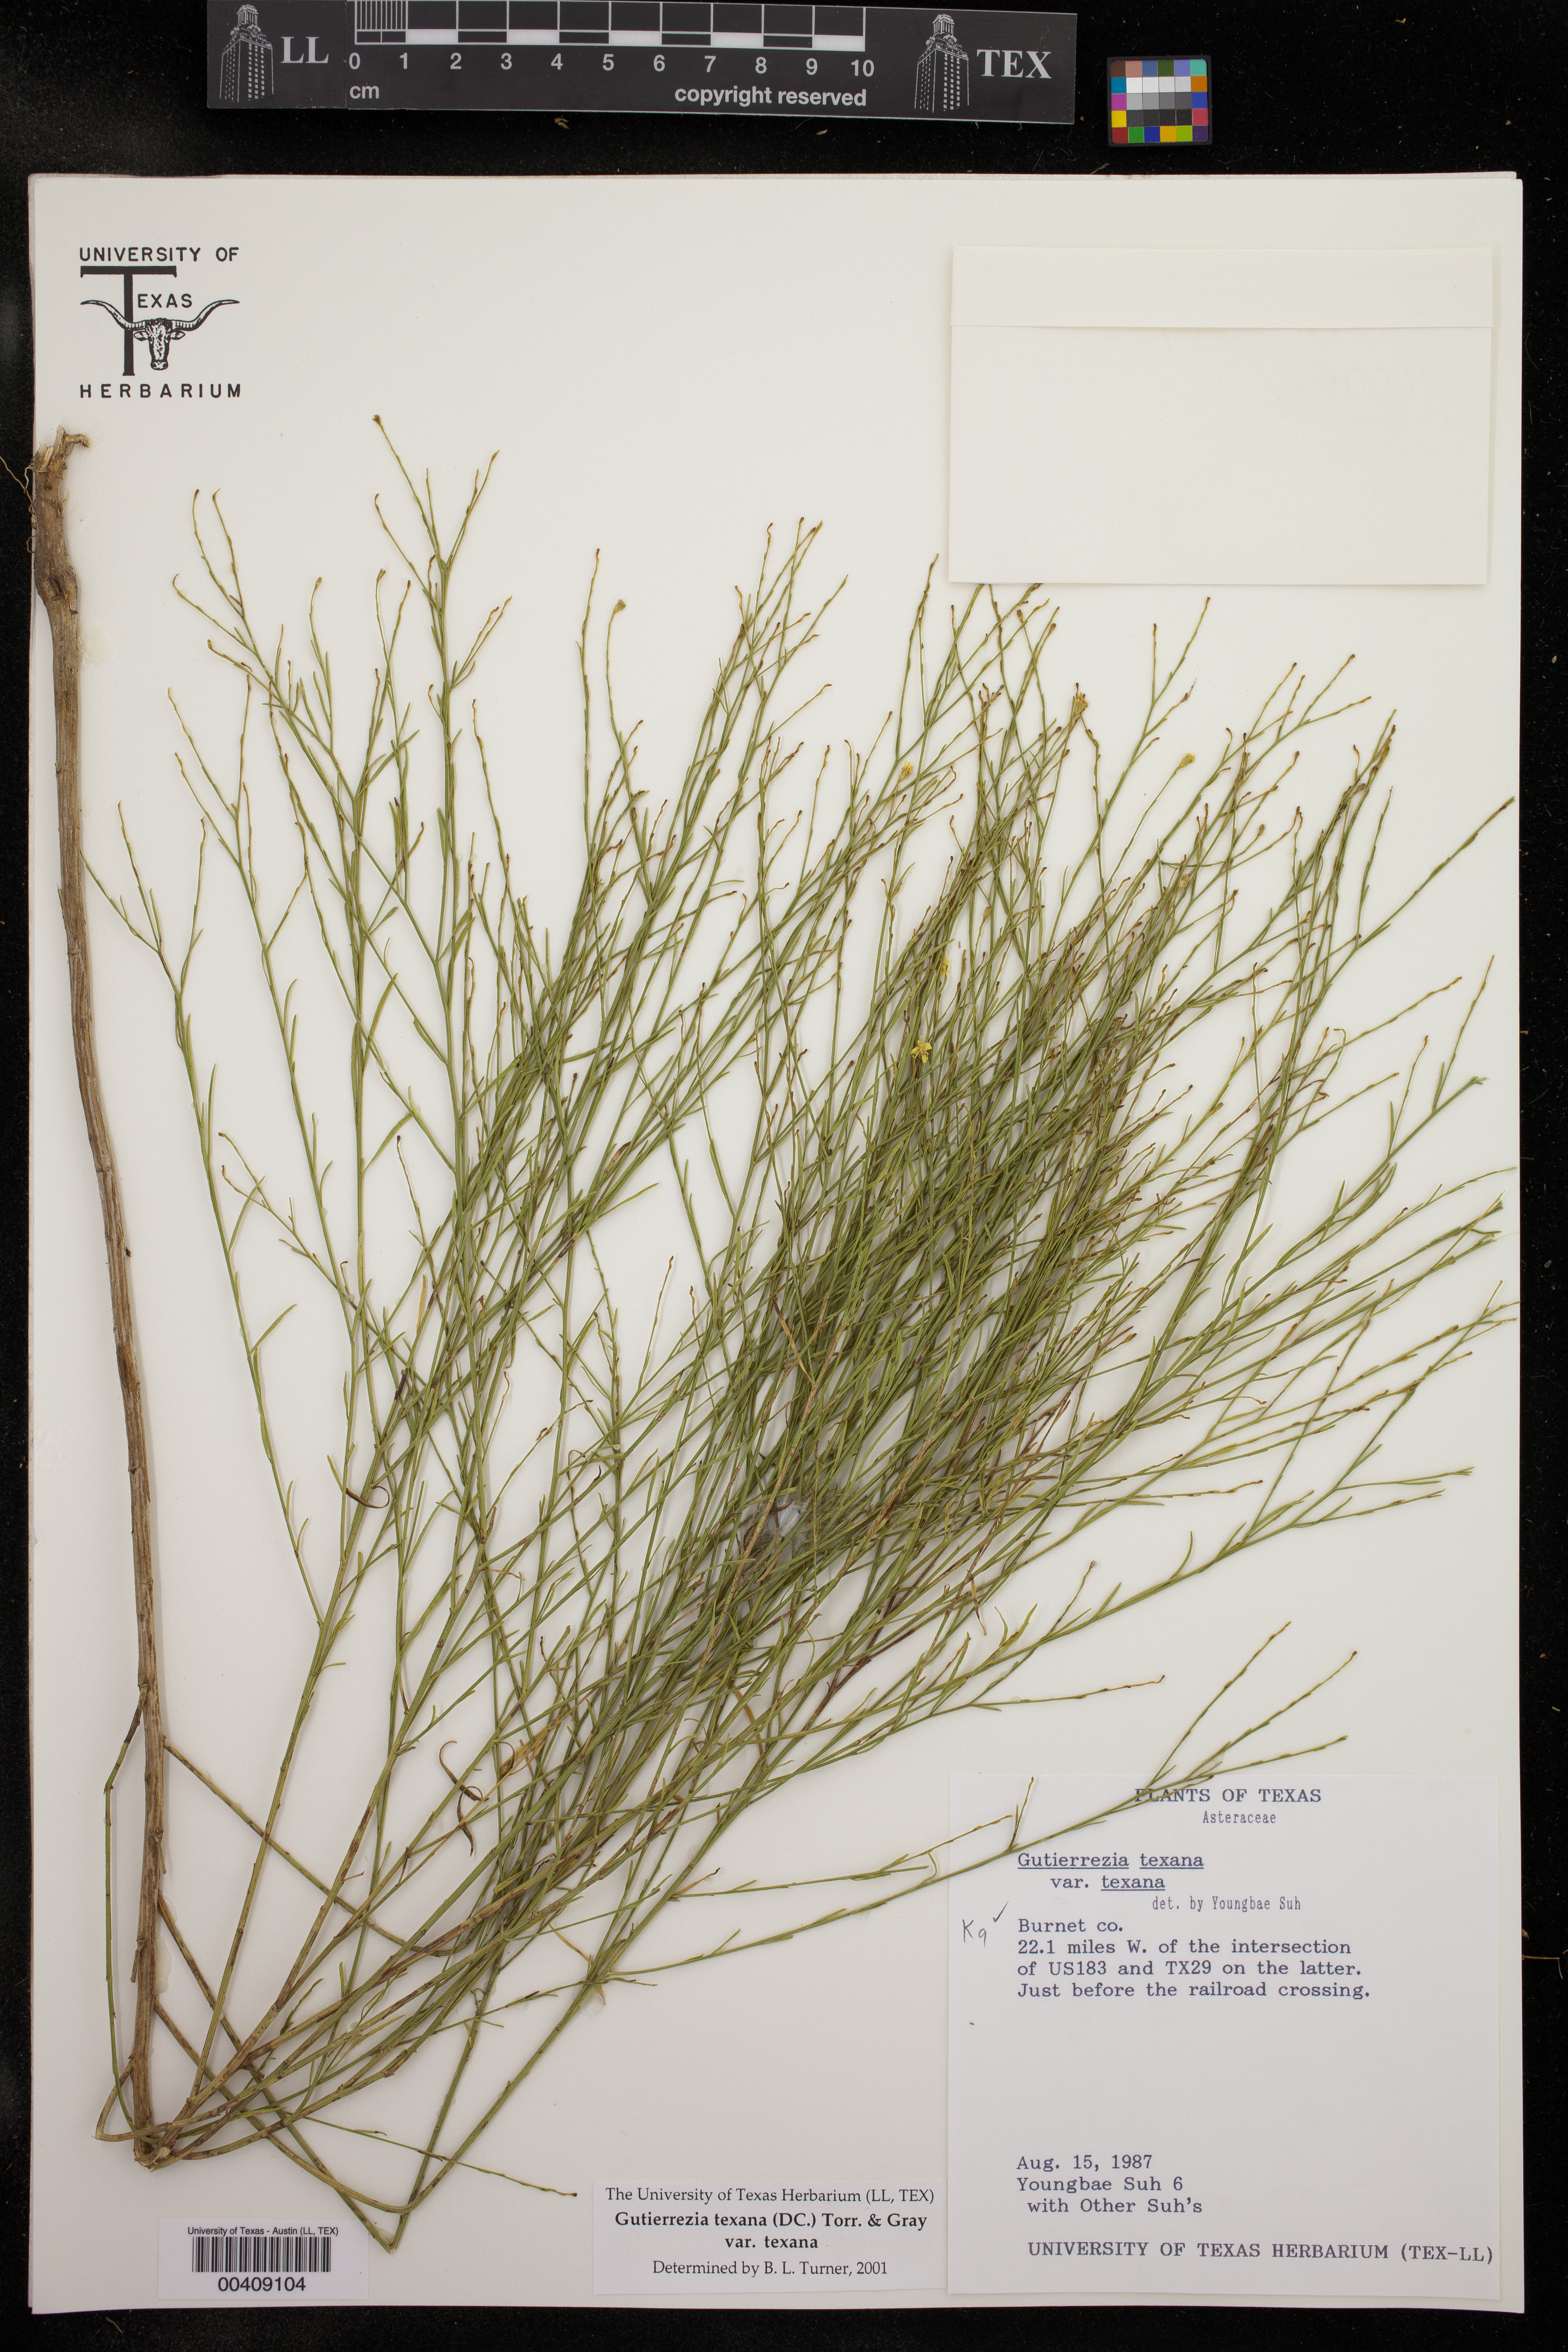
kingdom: Plantae
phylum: Tracheophyta
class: Magnoliopsida
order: Asterales
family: Asteraceae
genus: Gutierrezia
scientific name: Gutierrezia texana
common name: Texas snakeweed
